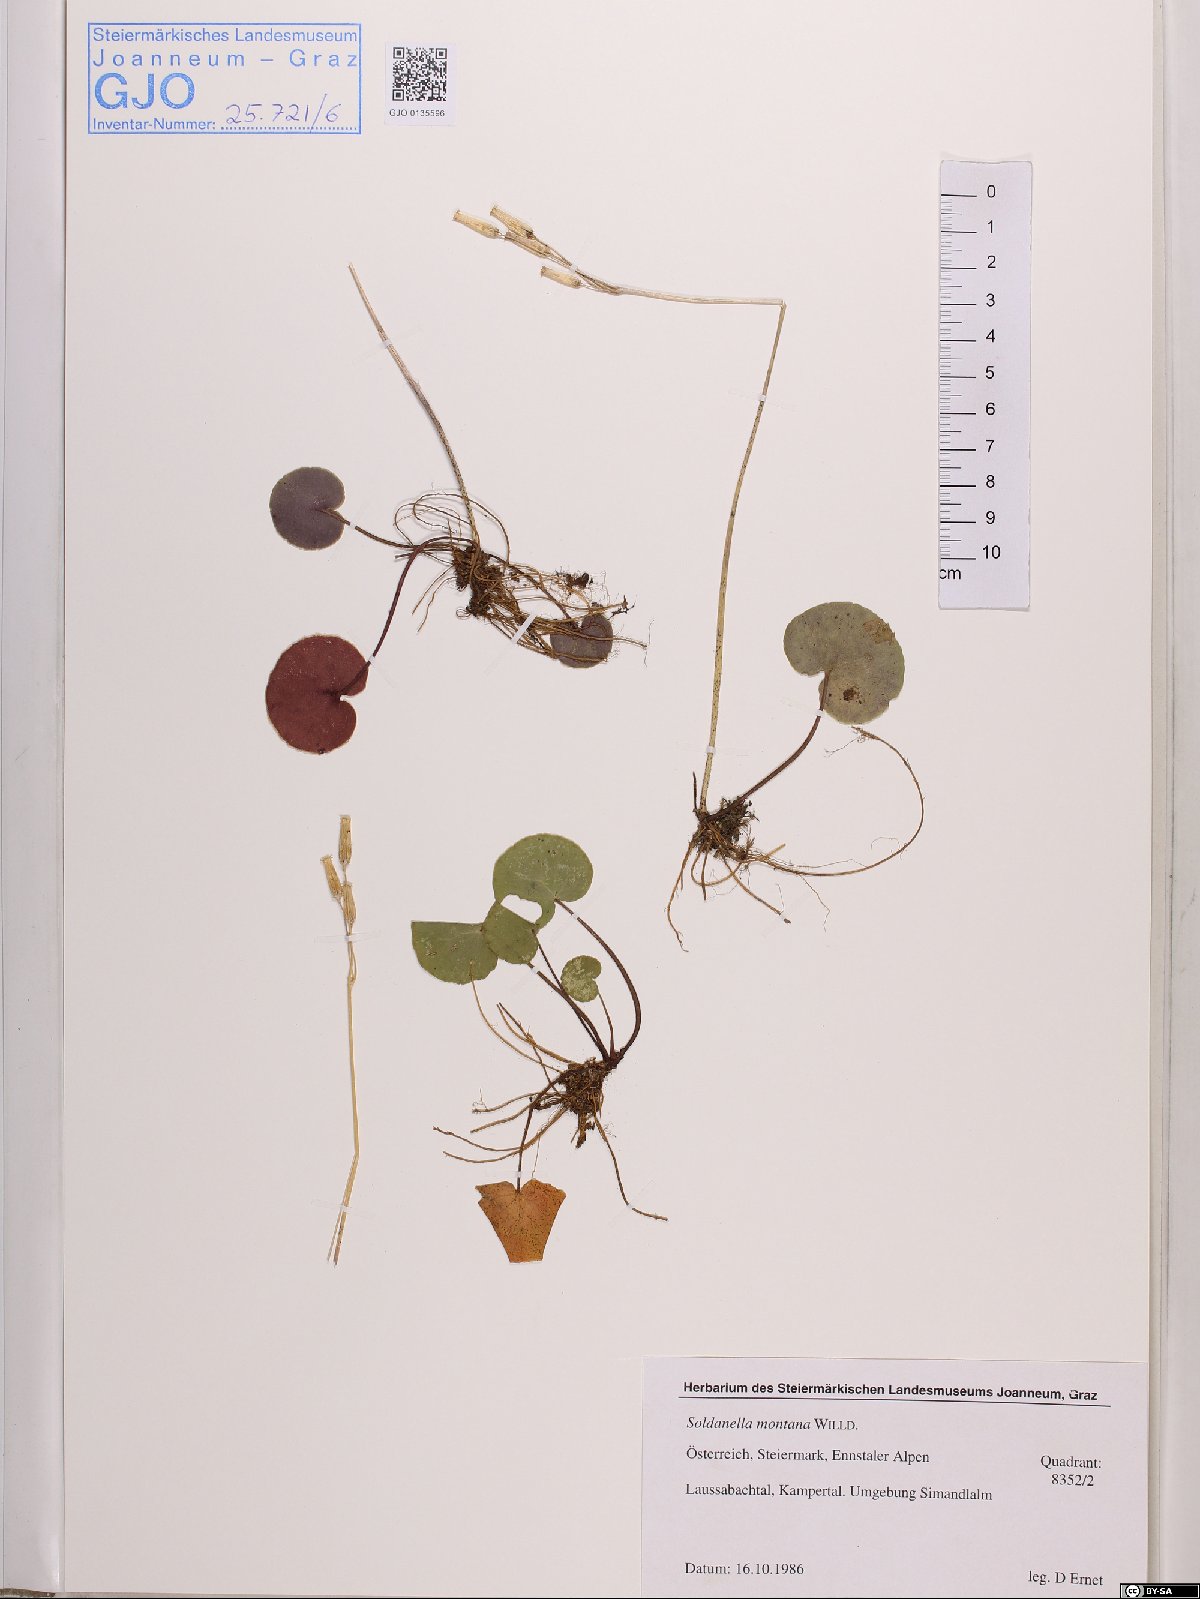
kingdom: Plantae
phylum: Tracheophyta
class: Magnoliopsida
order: Ericales
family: Primulaceae
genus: Soldanella
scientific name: Soldanella montana
